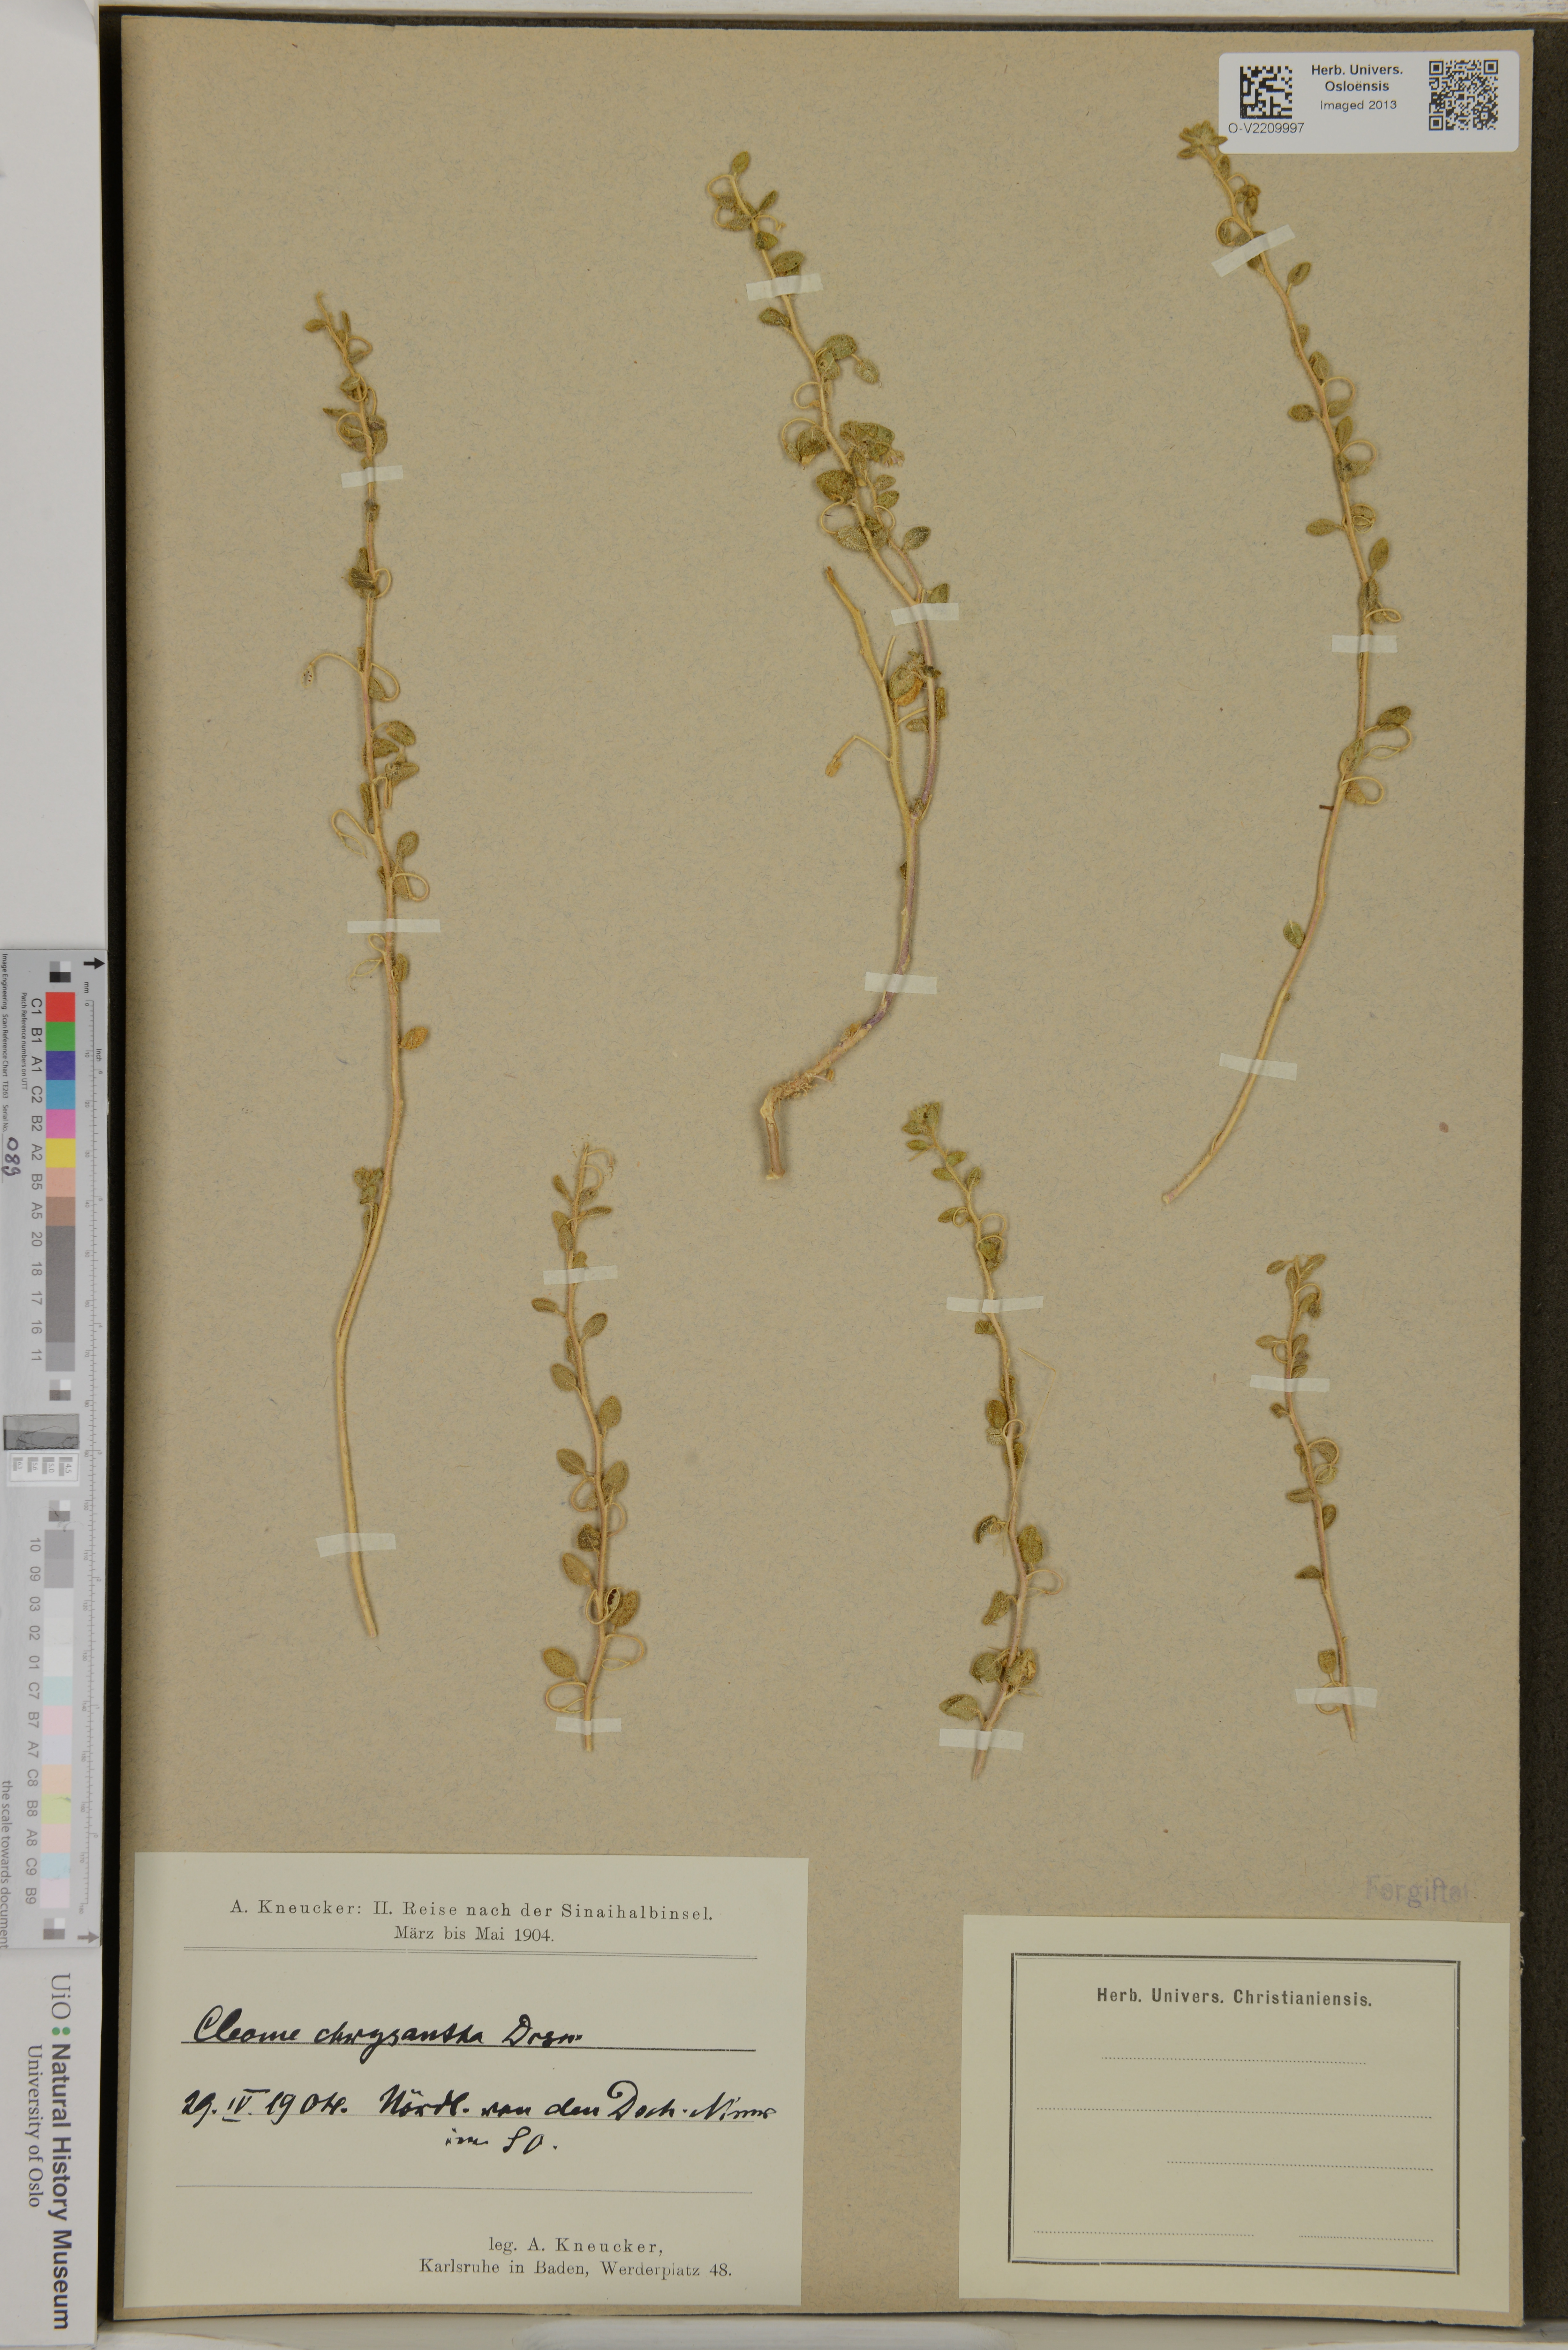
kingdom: Plantae
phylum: Tracheophyta
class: Magnoliopsida
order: Brassicales
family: Cleomaceae
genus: Thulinella
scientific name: Thulinella chrysantha
